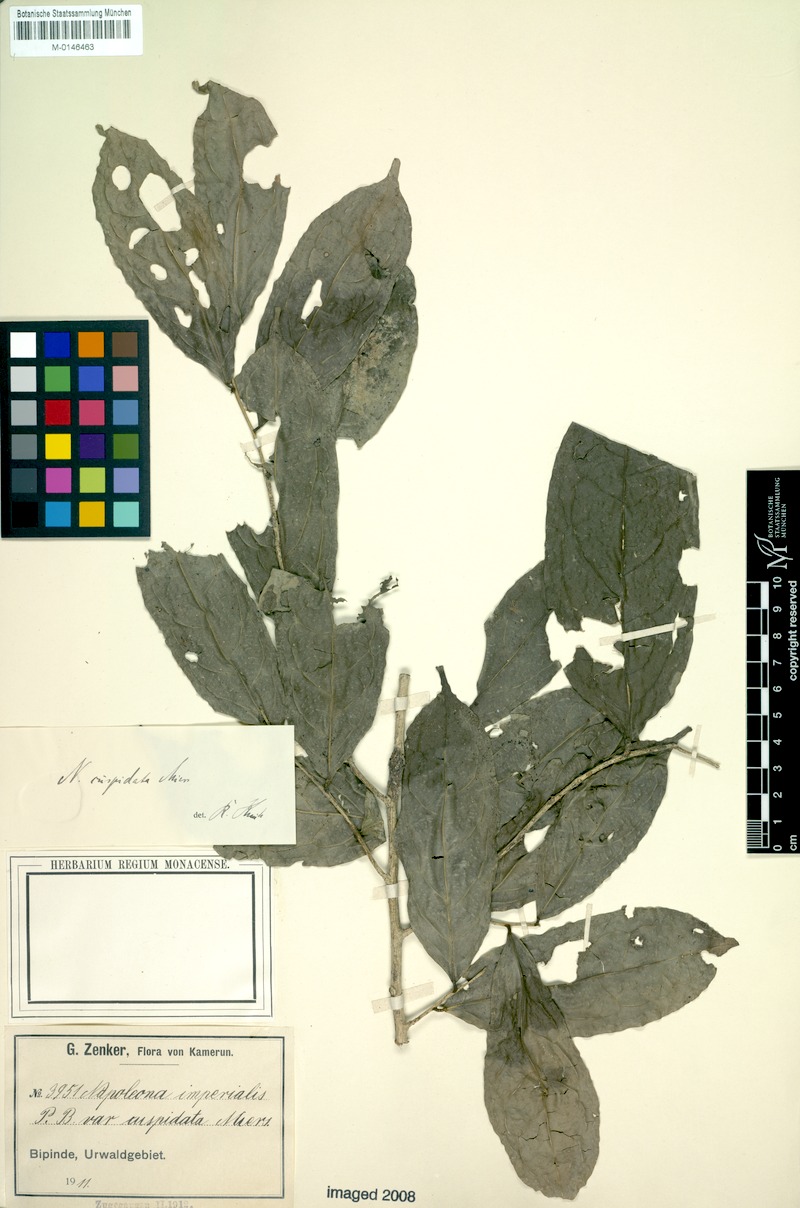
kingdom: Plantae
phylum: Tracheophyta
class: Magnoliopsida
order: Ericales
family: Lecythidaceae
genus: Napoleonaea
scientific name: Napoleonaea imperialis
